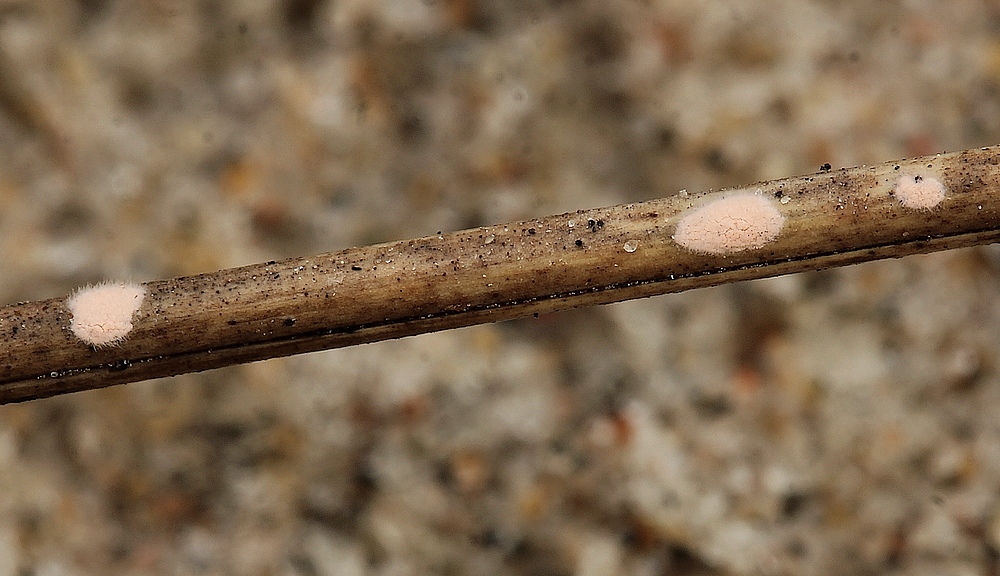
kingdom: Fungi
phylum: Ascomycota
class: Sordariomycetes
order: Hypocreales
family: Nectriaceae
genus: Volutella
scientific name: Volutella arundinis
